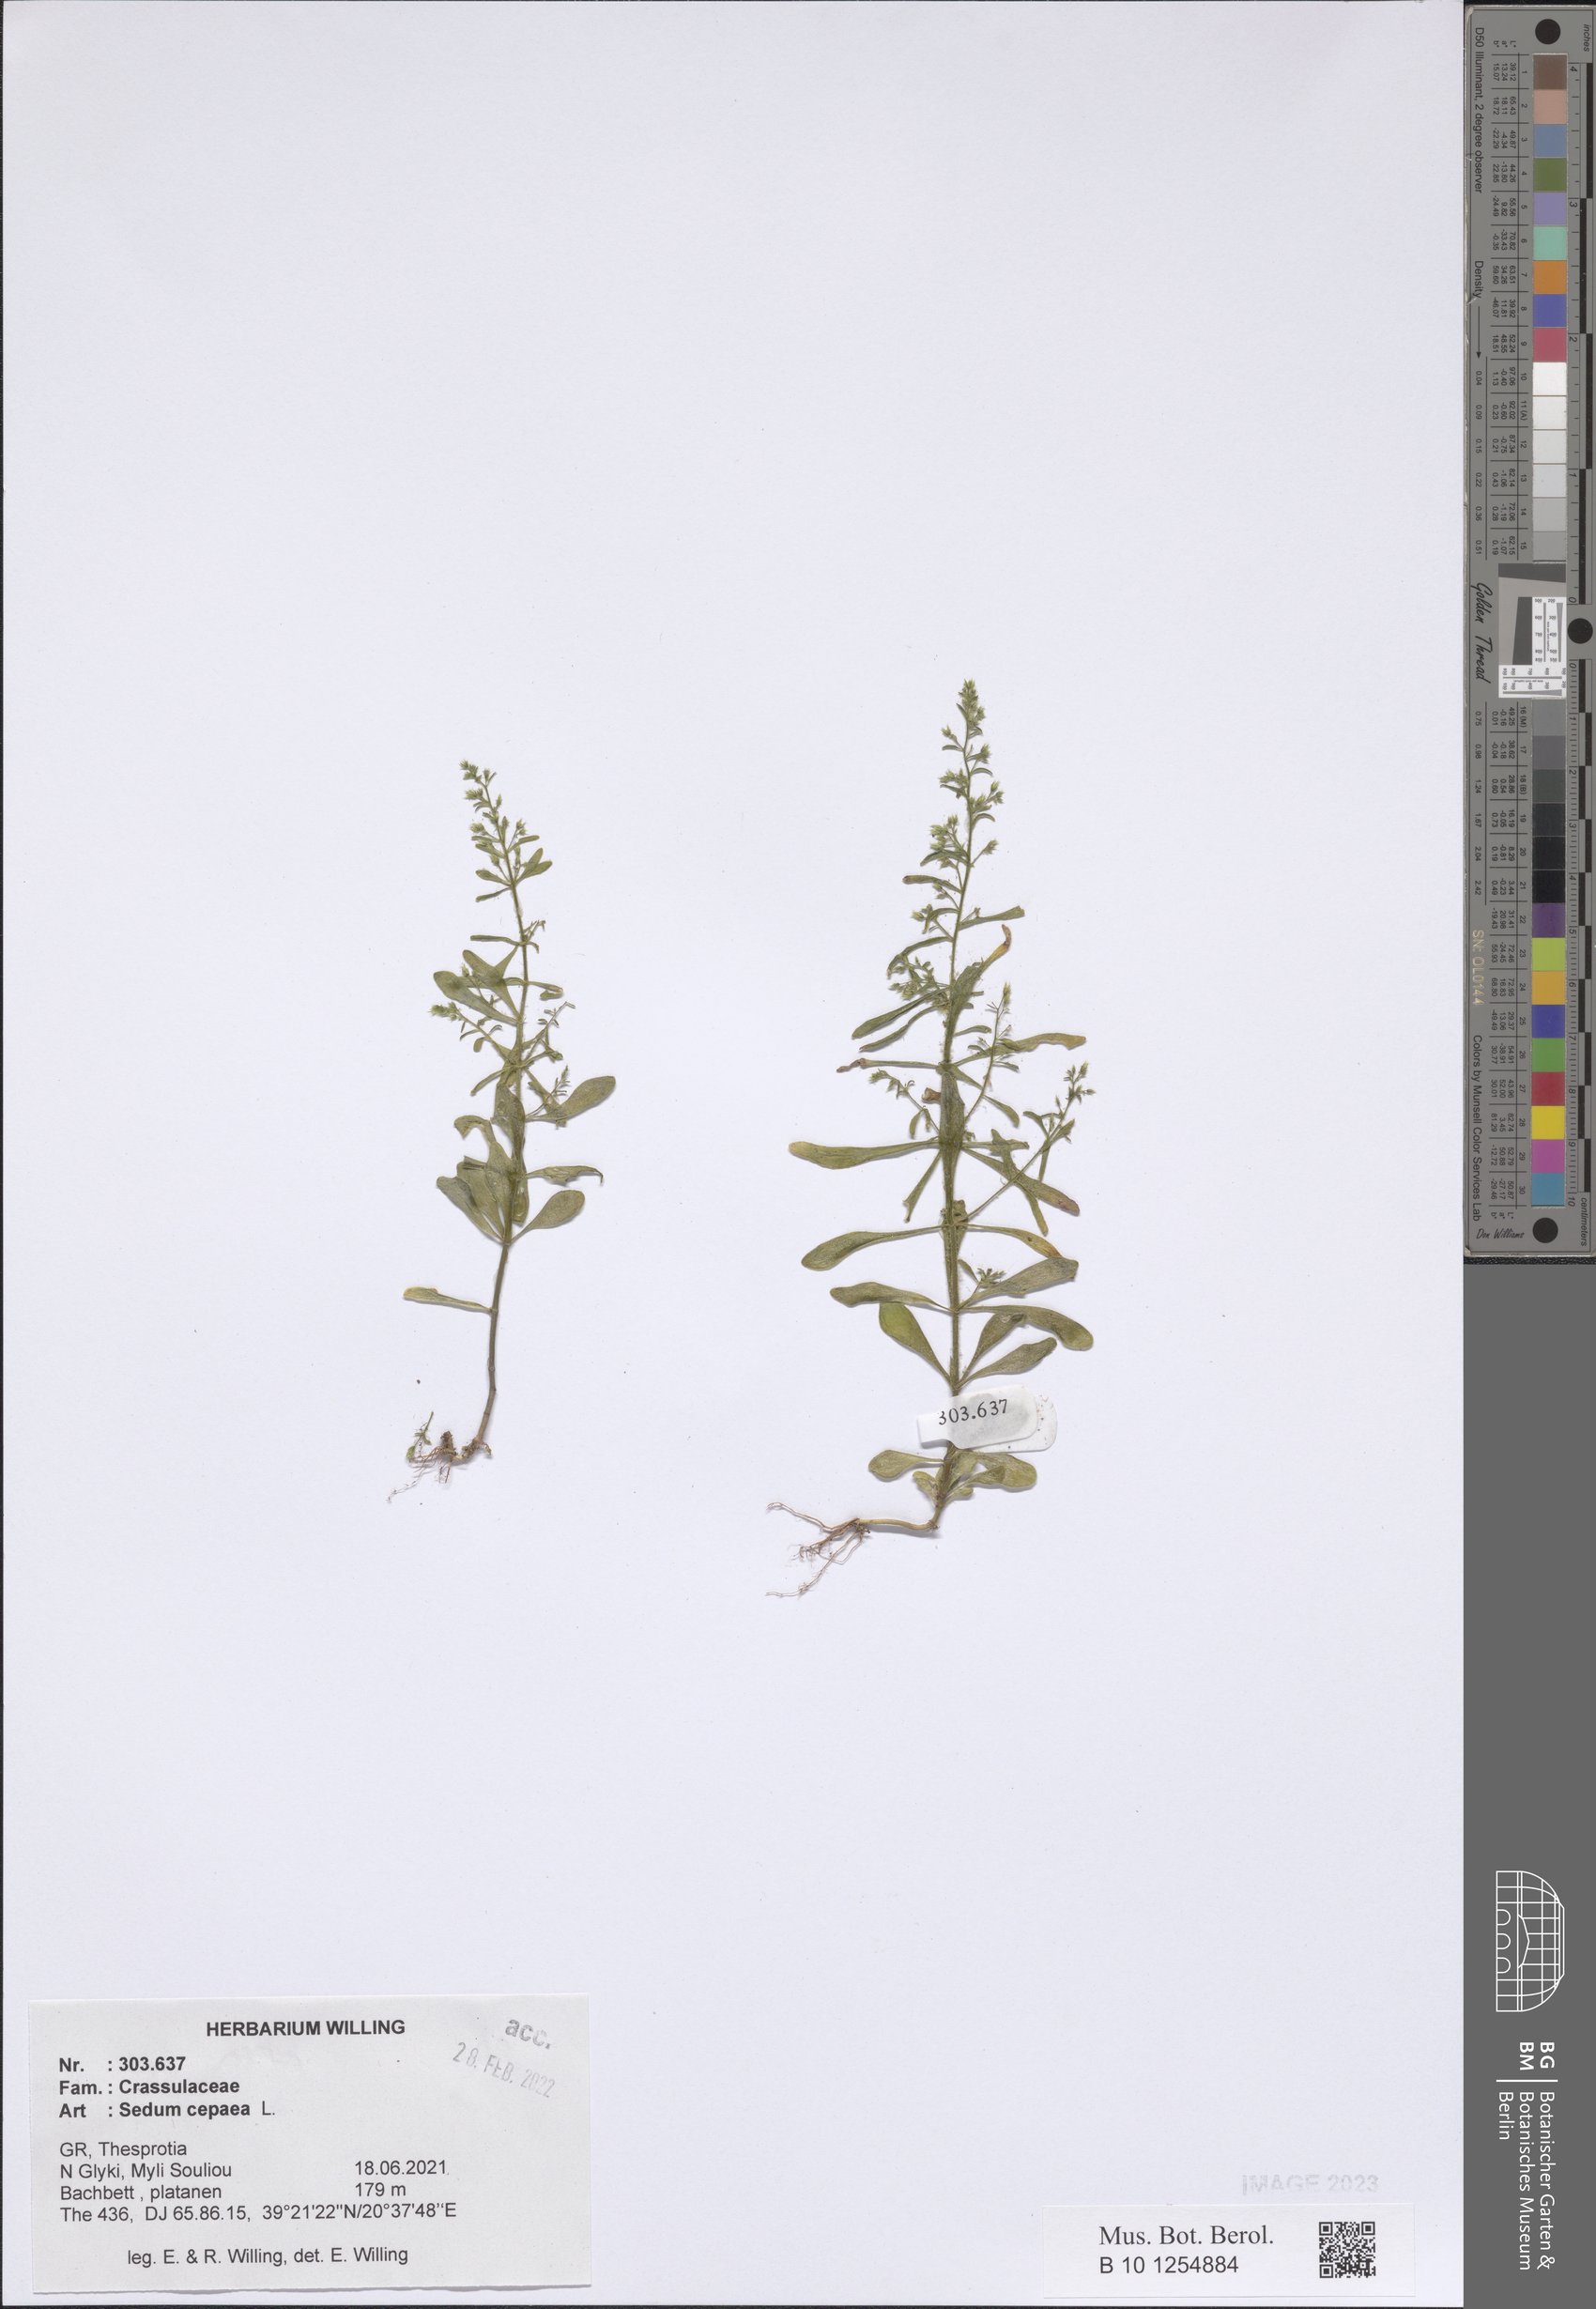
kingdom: Plantae
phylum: Tracheophyta
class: Magnoliopsida
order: Saxifragales
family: Crassulaceae
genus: Sedum
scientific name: Sedum cepaea
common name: Pink stonecrop
